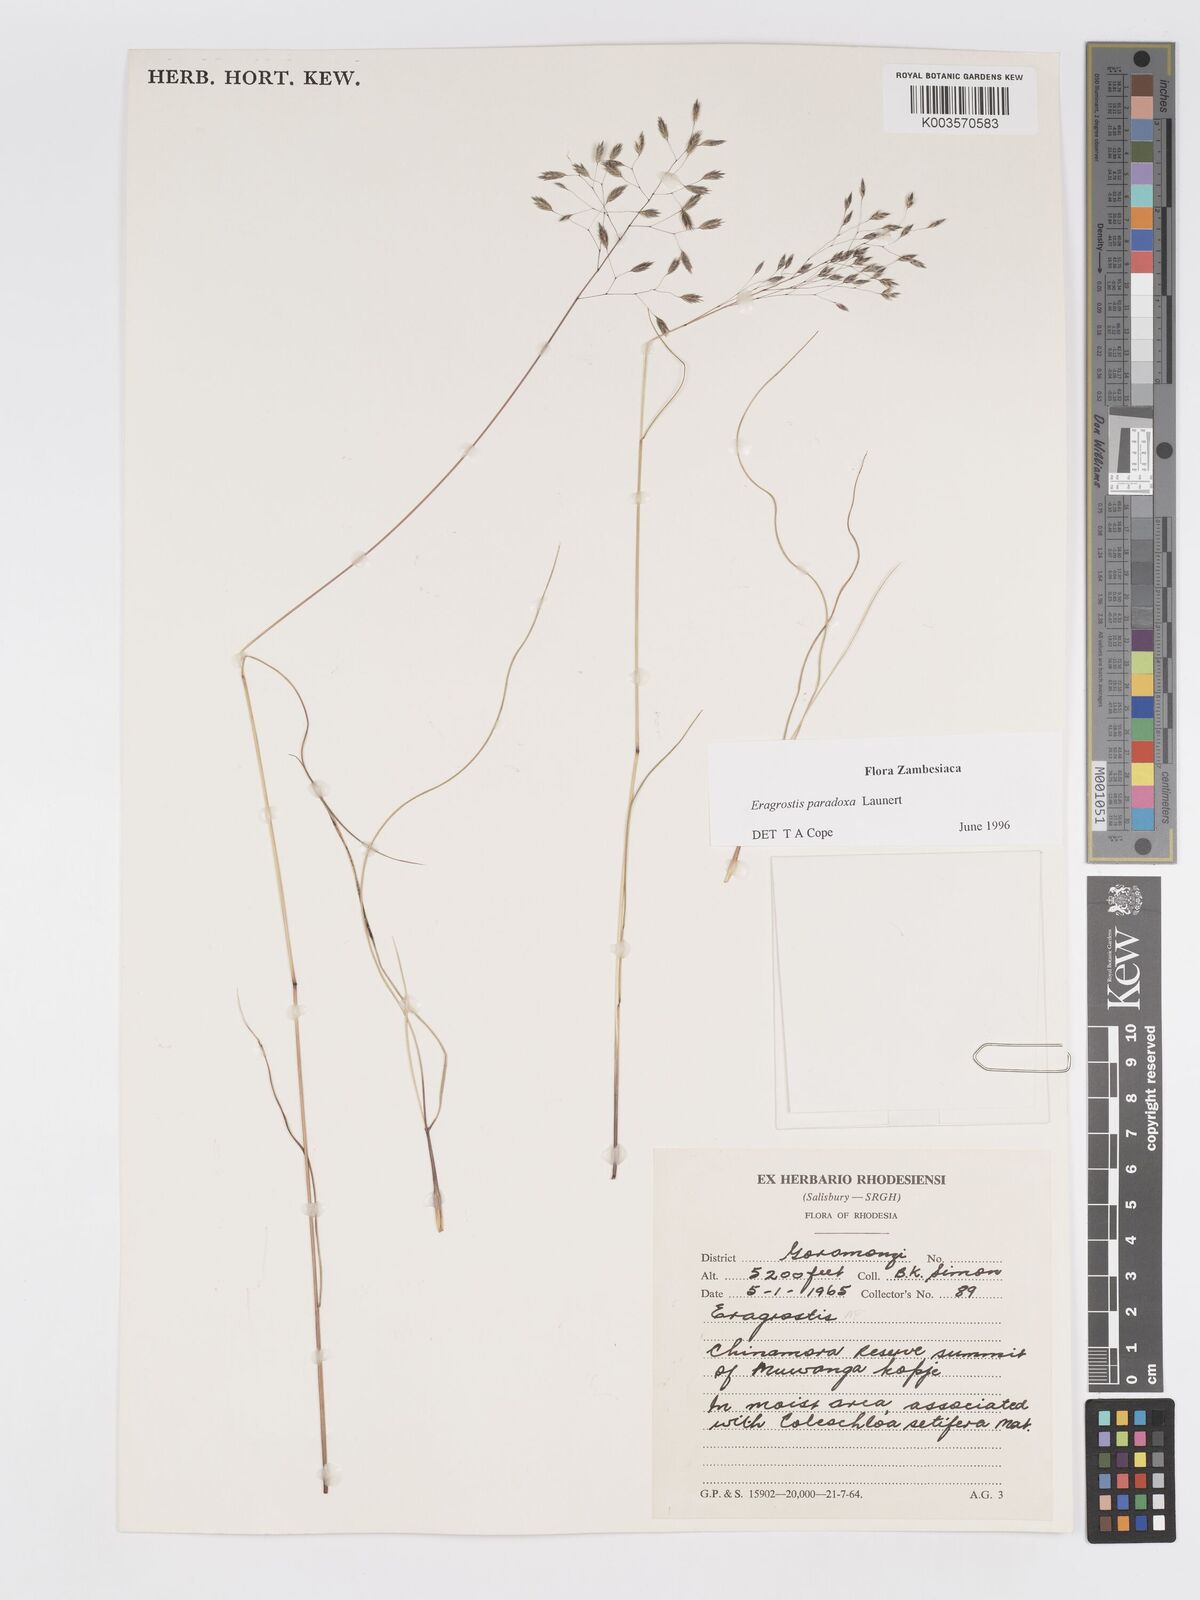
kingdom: Plantae
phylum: Tracheophyta
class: Liliopsida
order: Poales
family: Poaceae
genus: Eragrostis
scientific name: Eragrostis paradoxa
